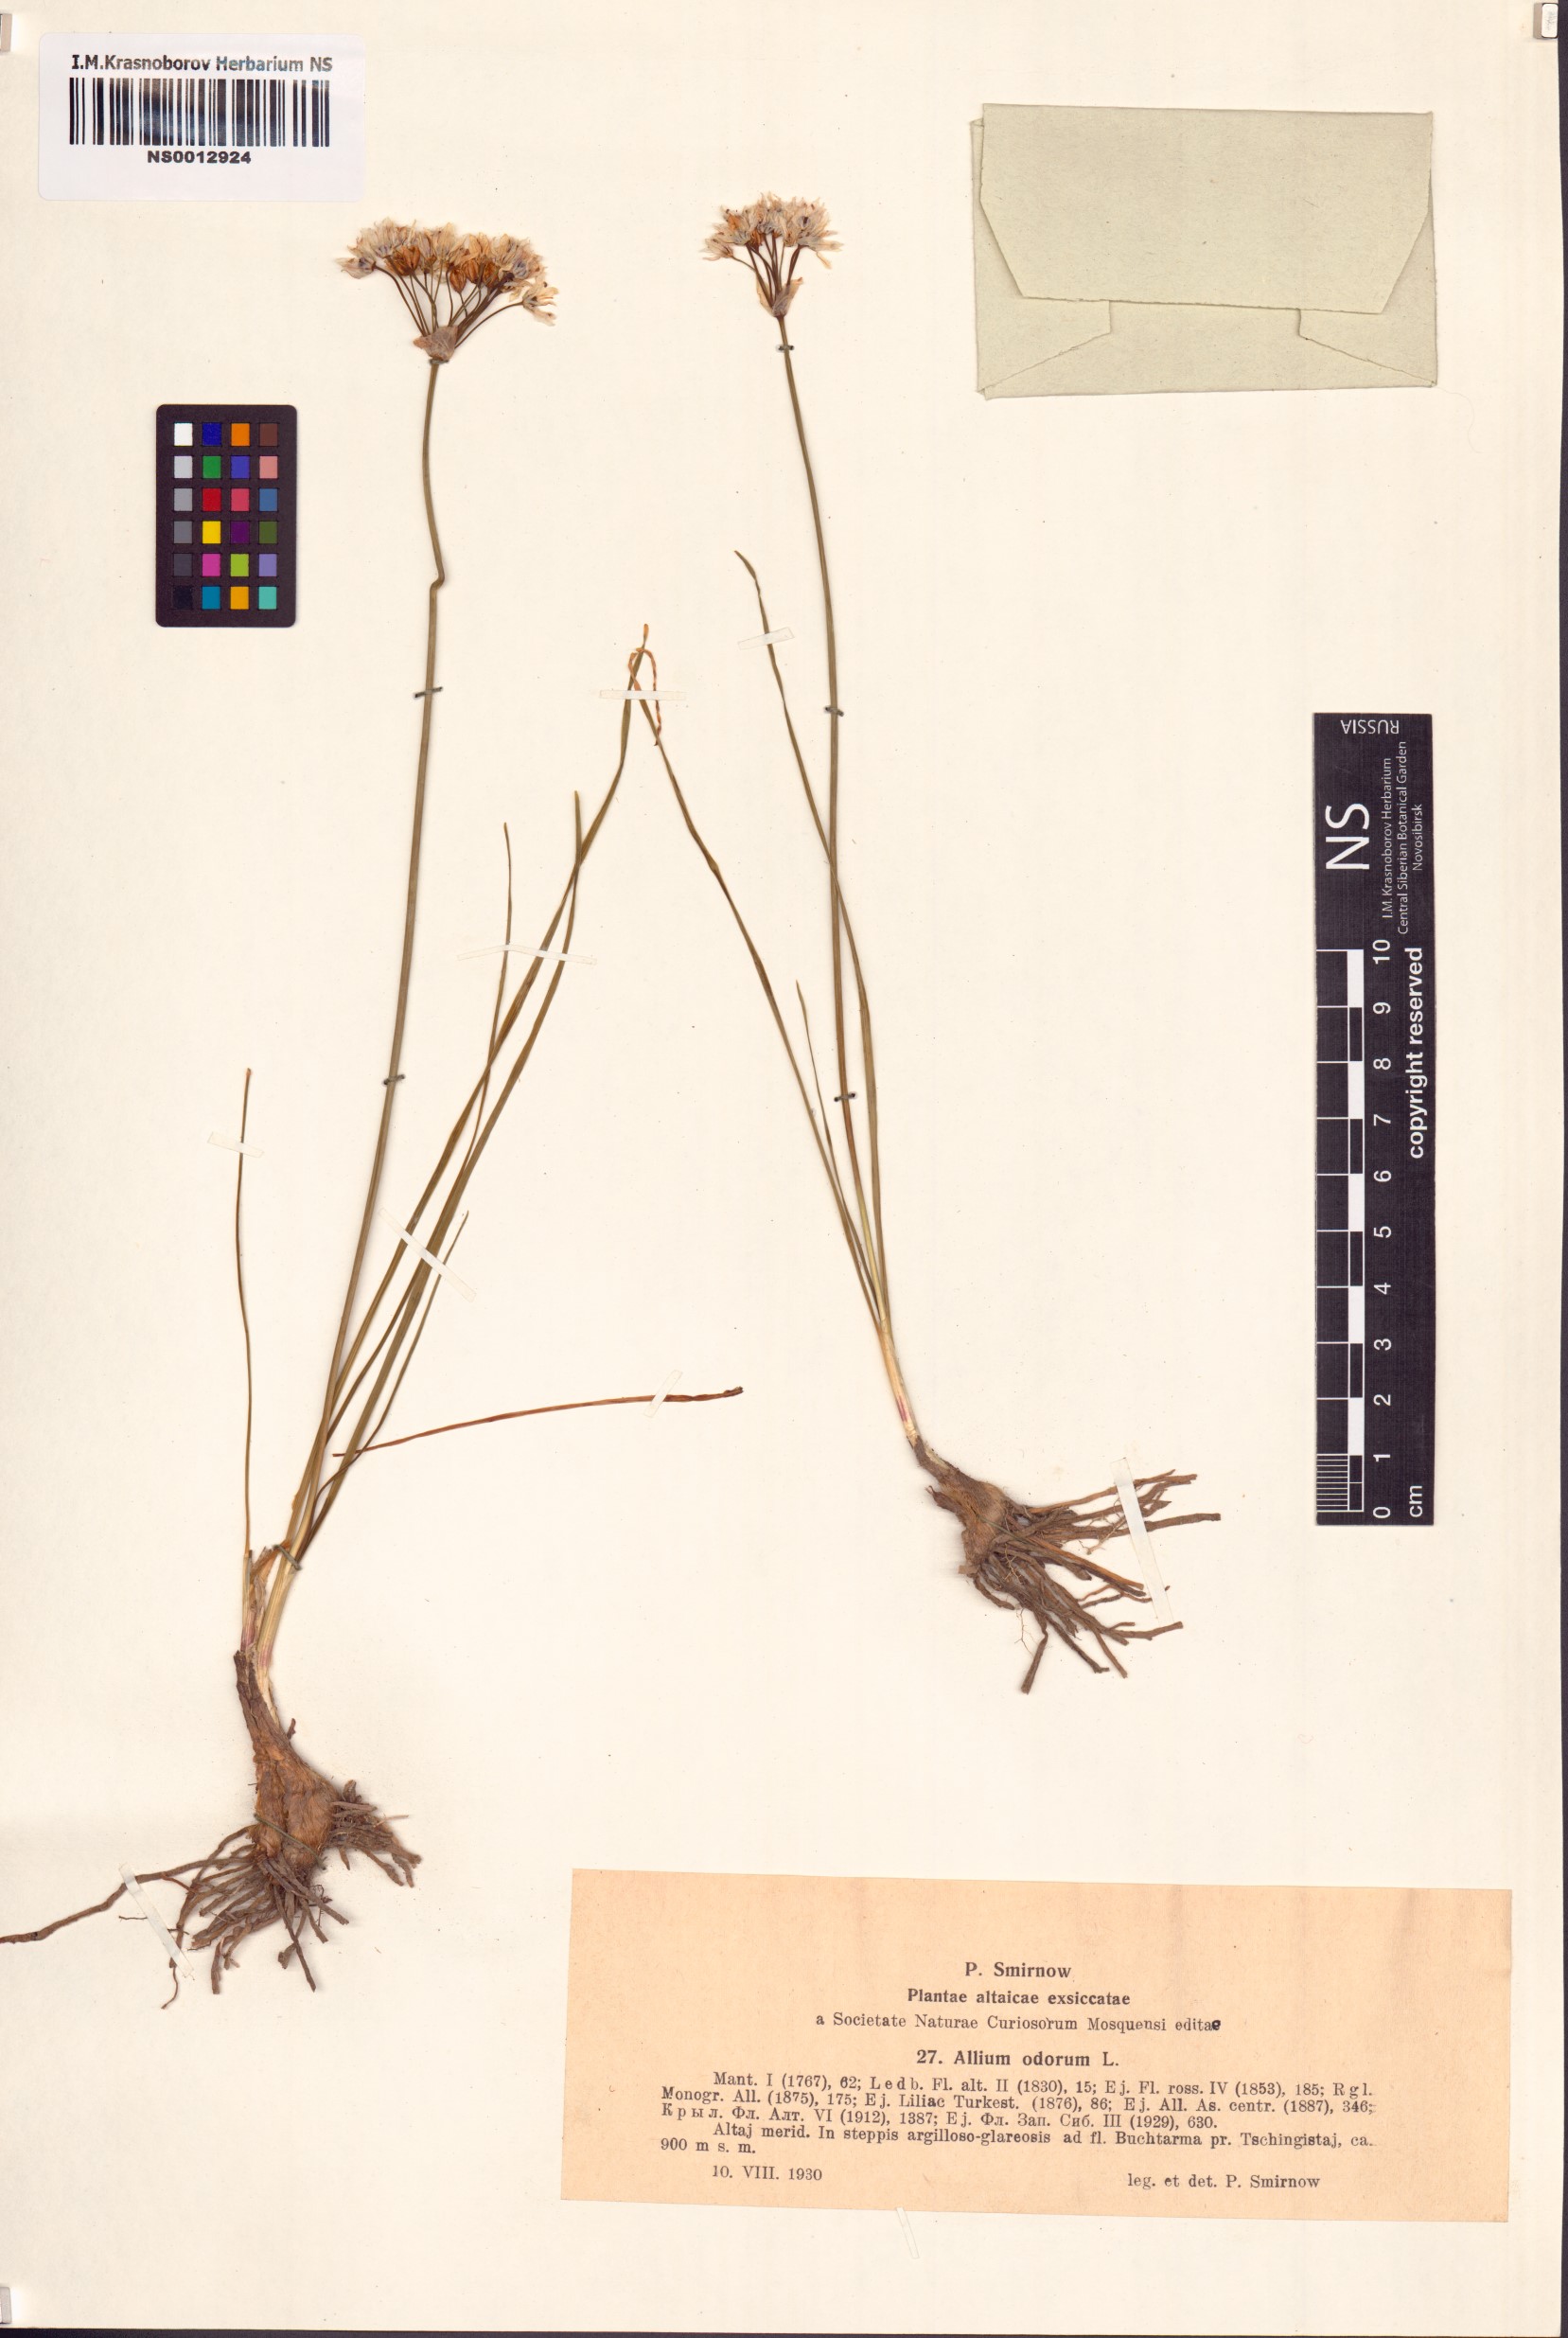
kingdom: Plantae
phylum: Tracheophyta
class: Liliopsida
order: Asparagales
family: Amaryllidaceae
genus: Allium
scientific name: Allium ramosum
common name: Fragrant garlic
